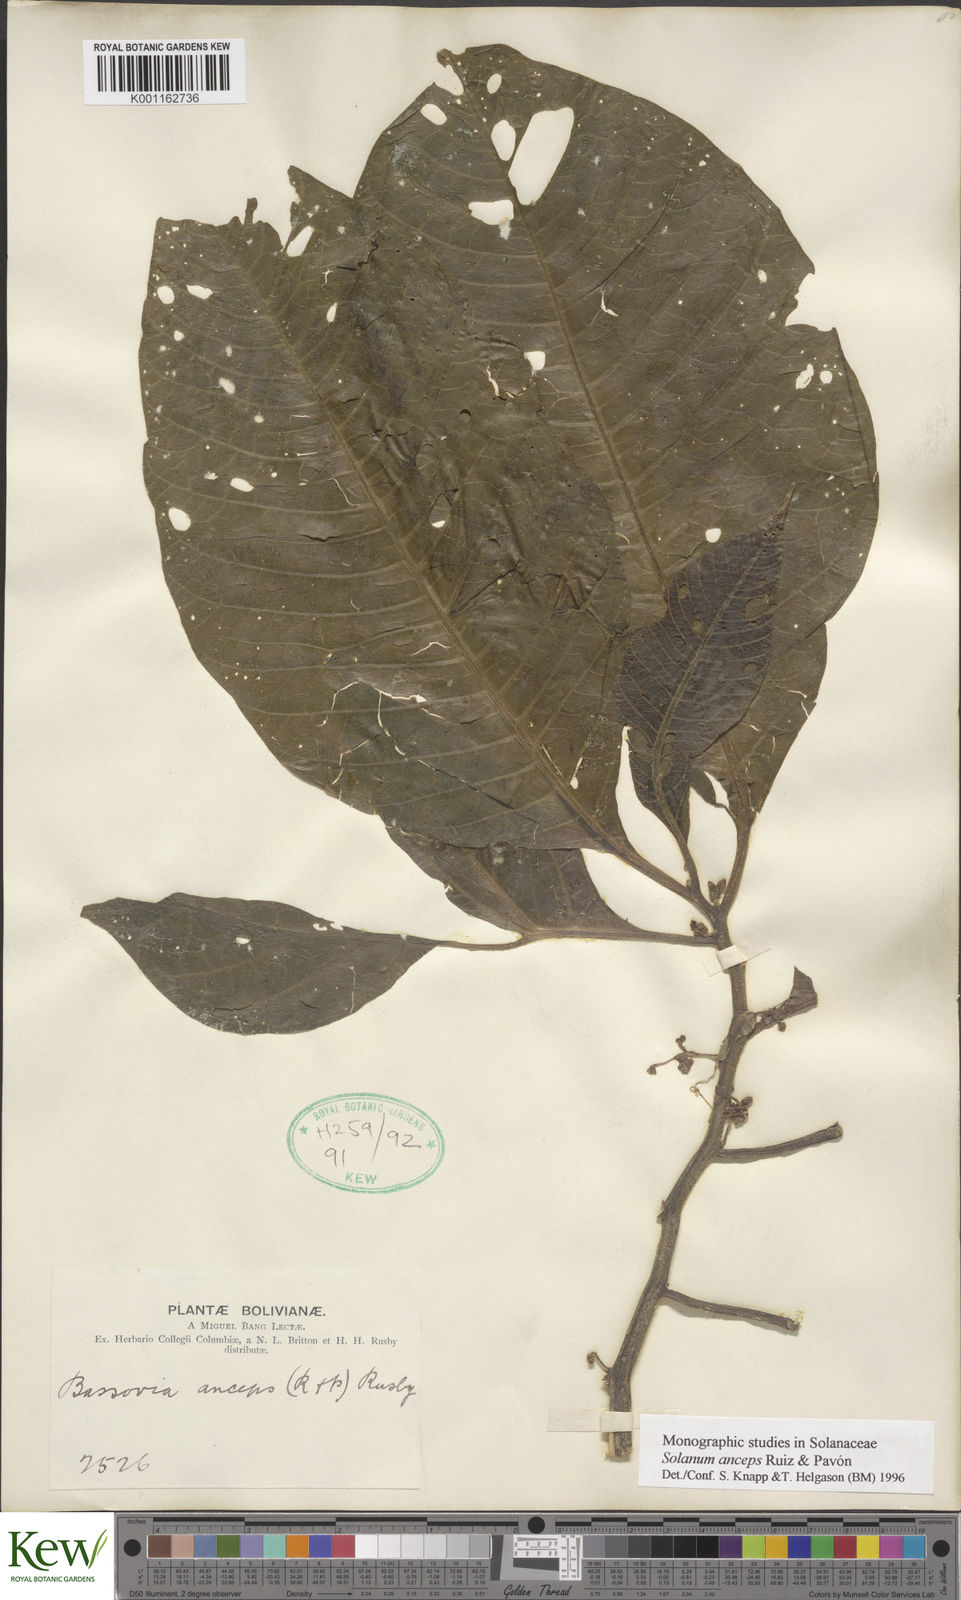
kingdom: Plantae
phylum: Tracheophyta
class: Magnoliopsida
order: Solanales
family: Solanaceae
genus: Solanum
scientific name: Solanum anceps
